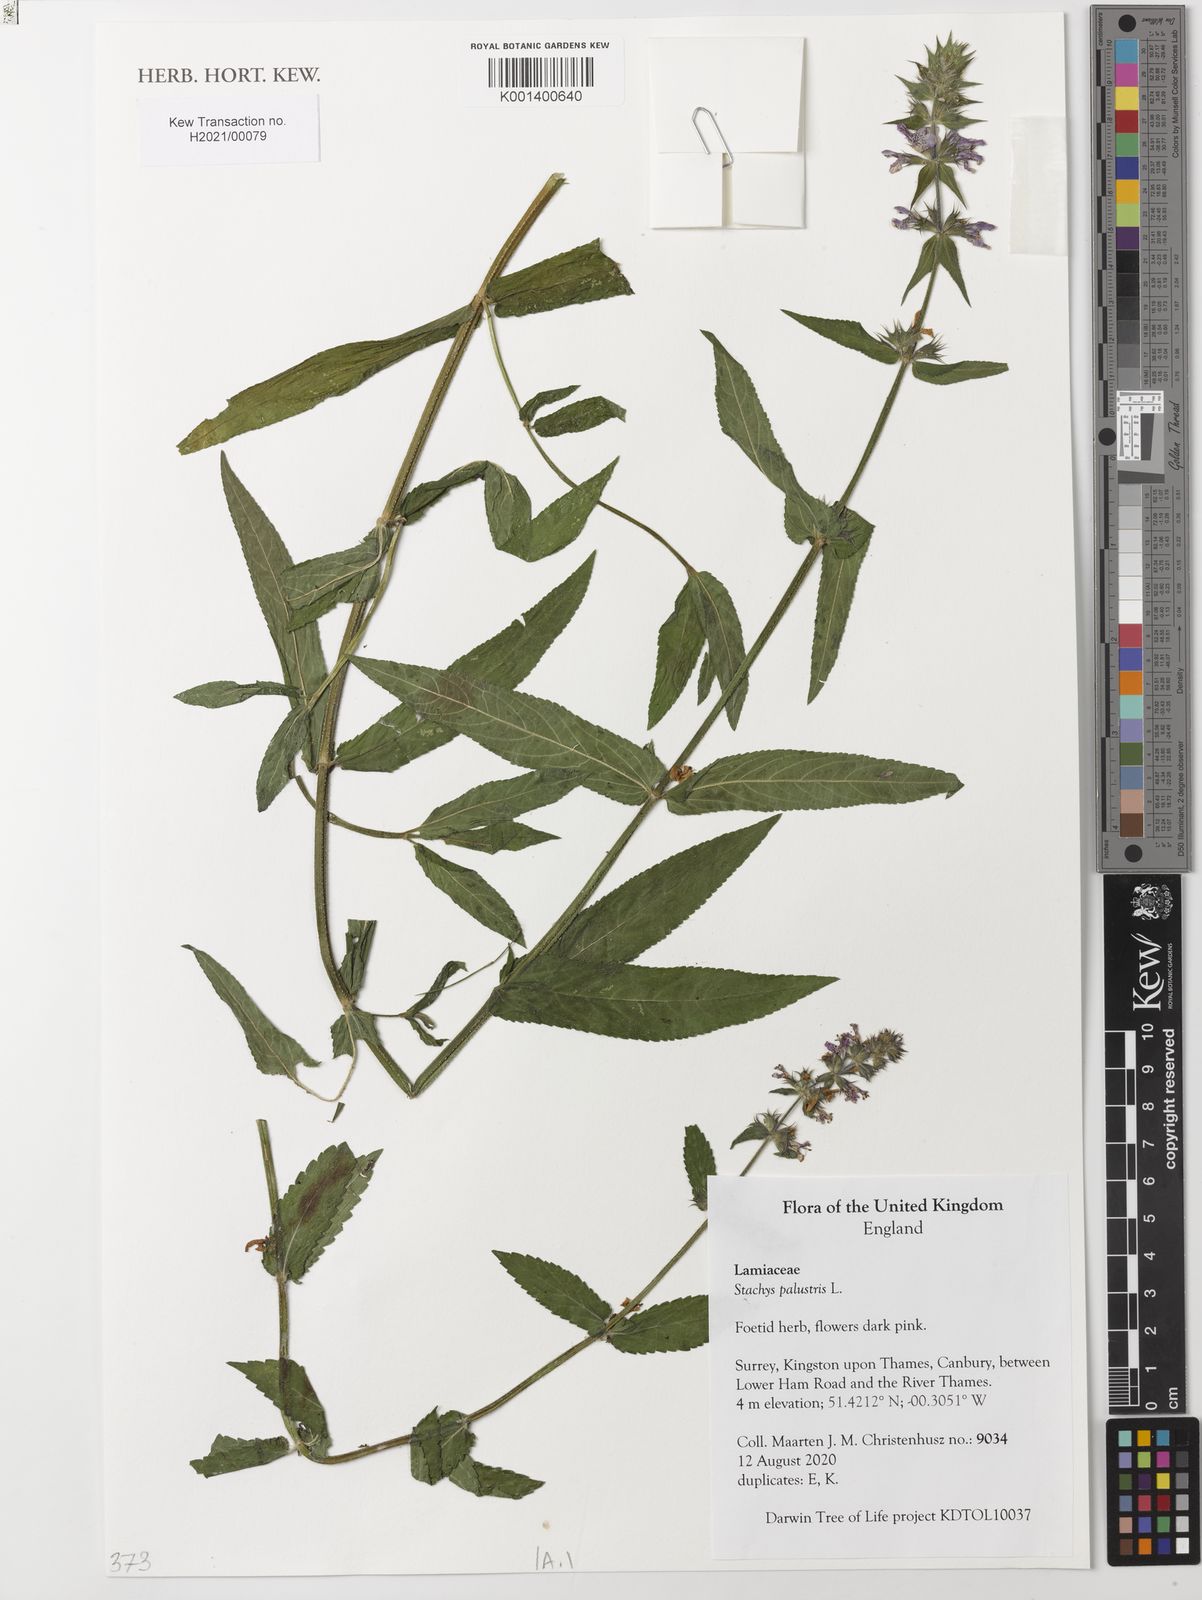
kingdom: Plantae
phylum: Tracheophyta
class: Magnoliopsida
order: Lamiales
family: Lamiaceae
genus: Stachys
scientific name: Stachys palustris
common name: Marsh woundwort
